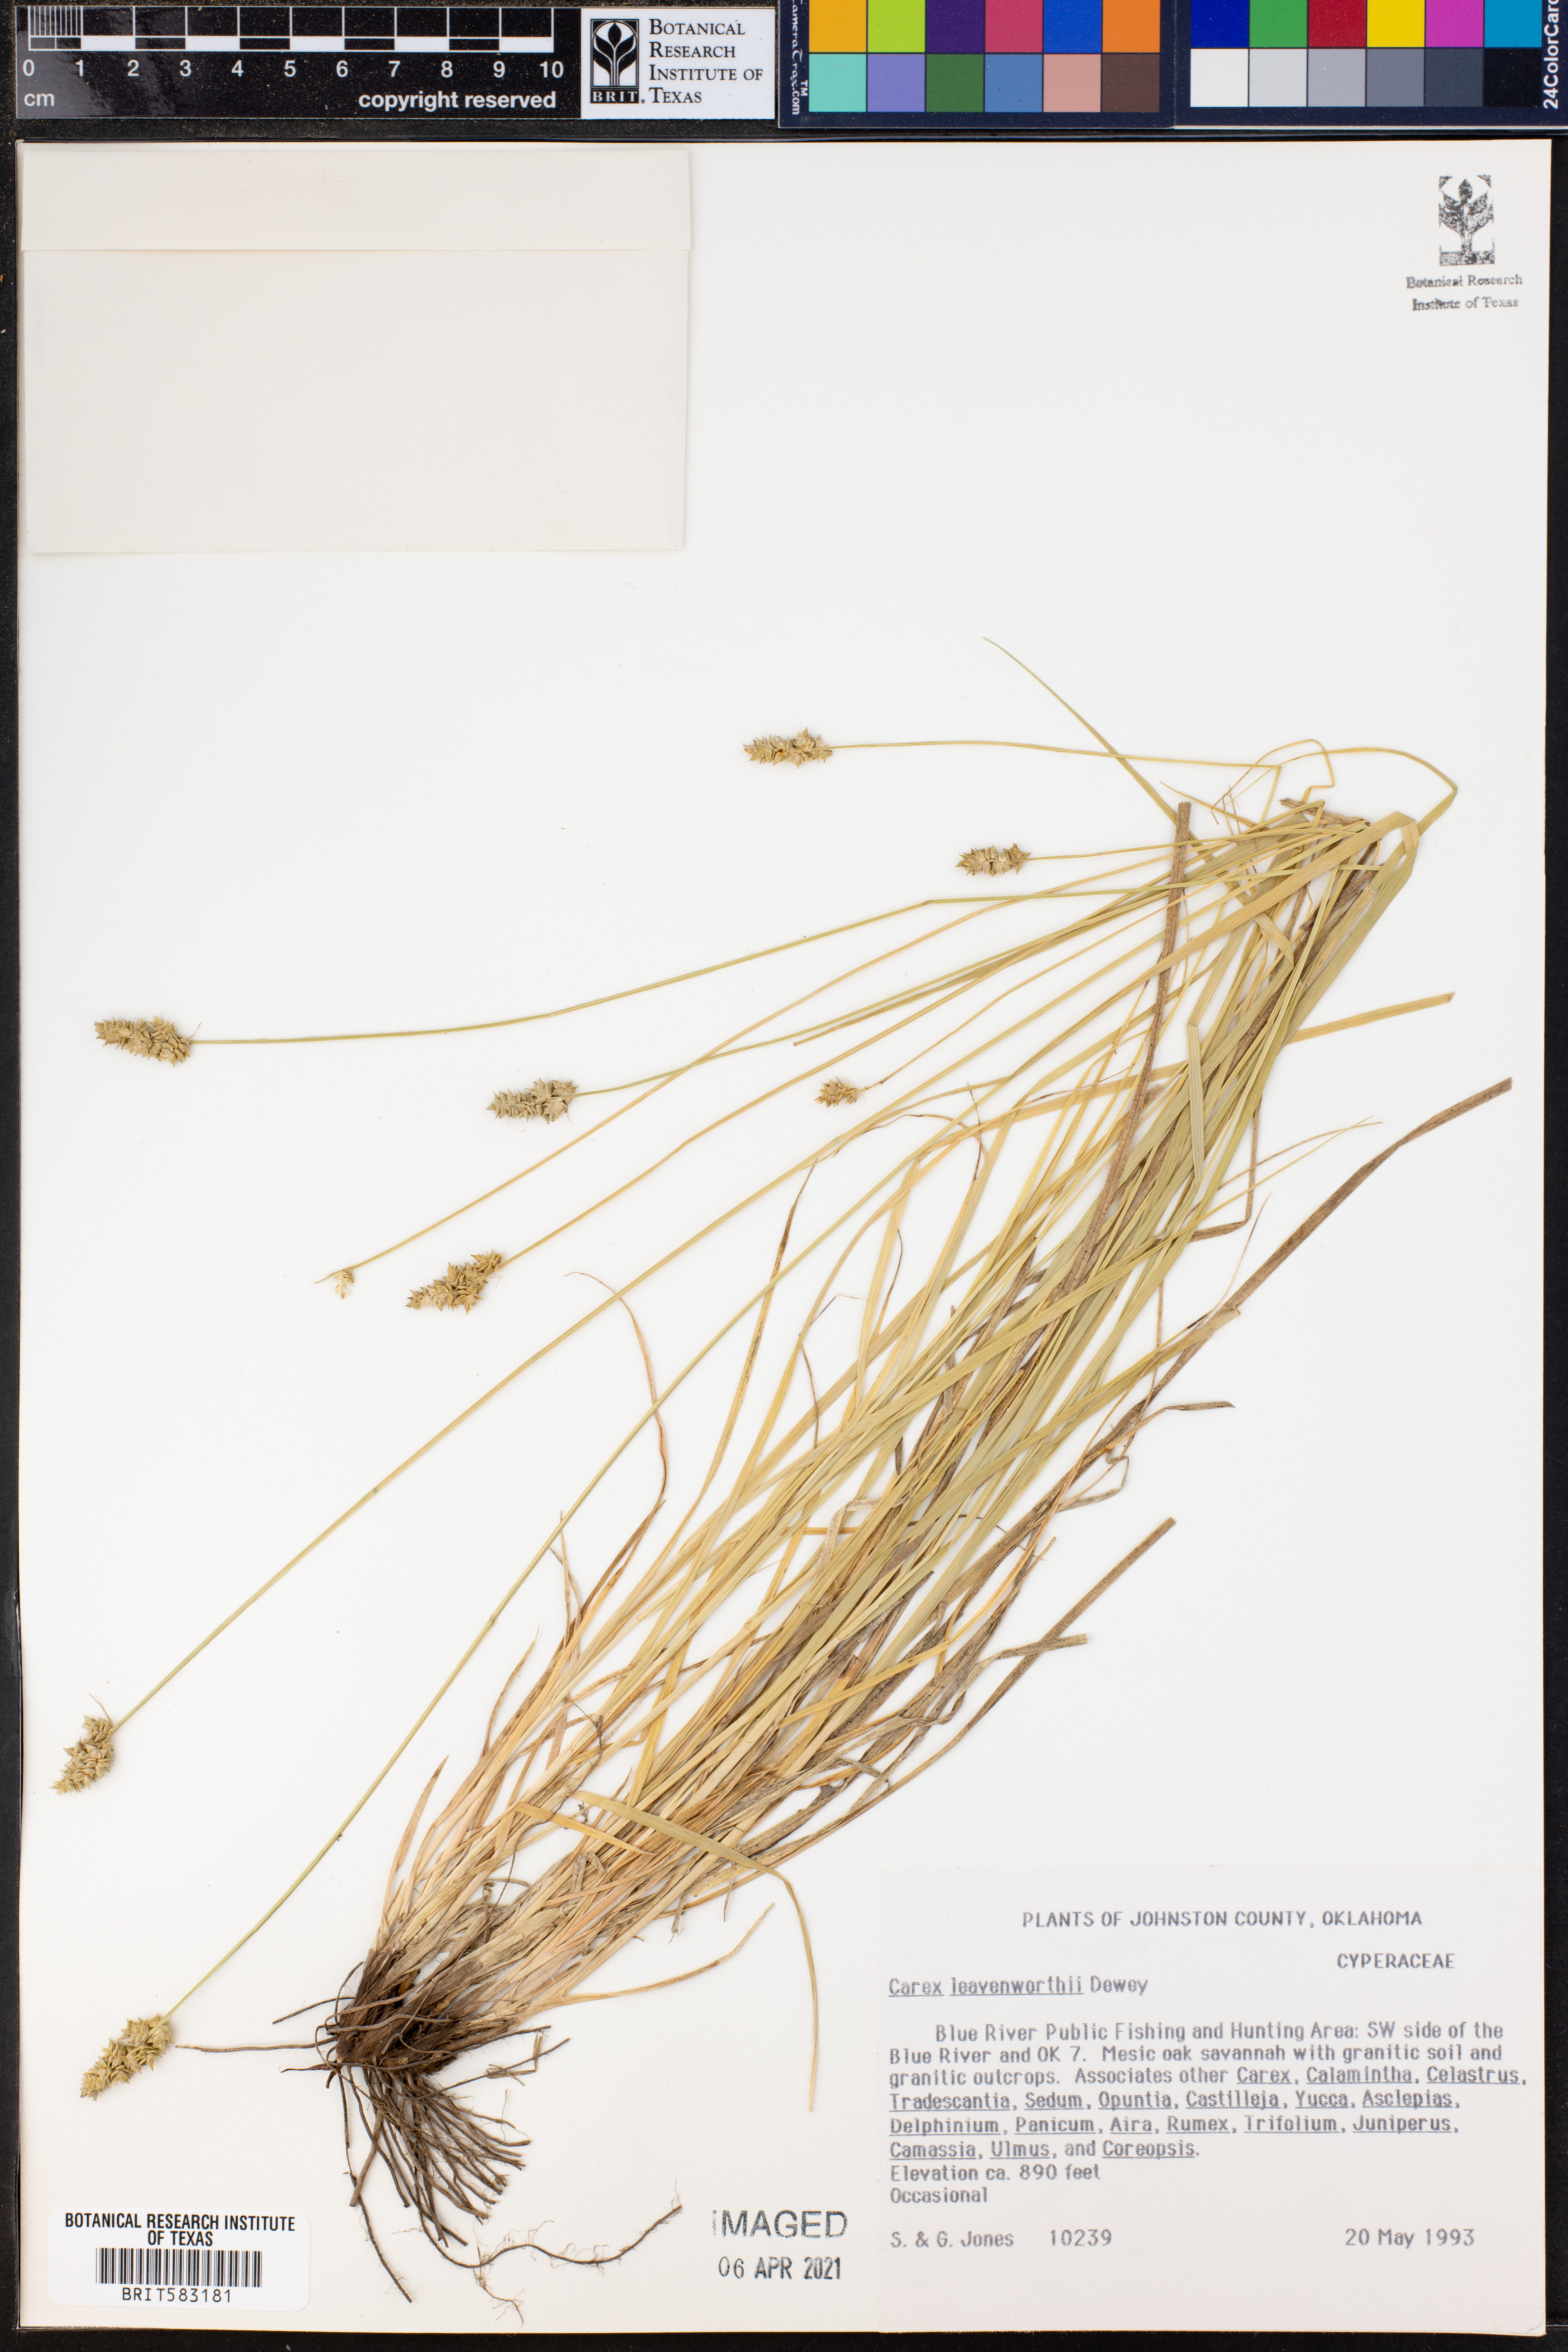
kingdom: Plantae
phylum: Tracheophyta
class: Liliopsida
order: Poales
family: Cyperaceae
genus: Carex
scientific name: Carex leavenworthii
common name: Leavenworth's bracted sedge
